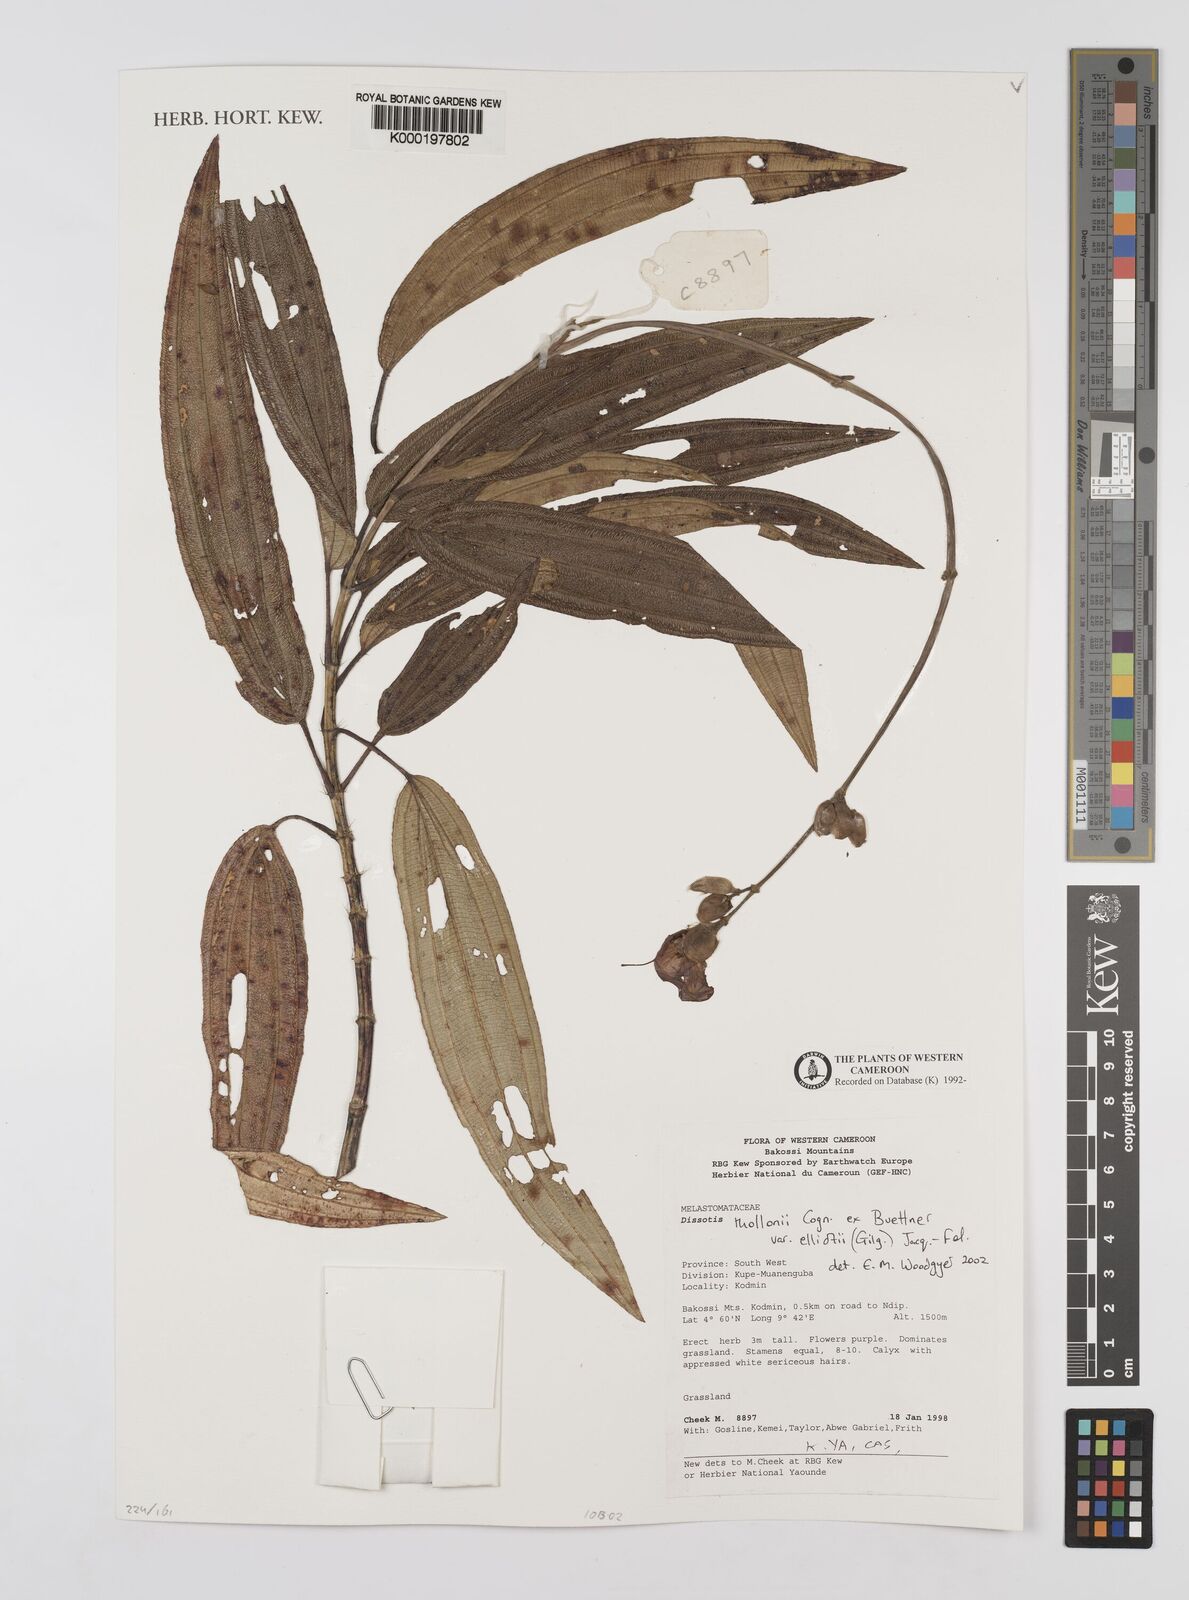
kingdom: Plantae
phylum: Tracheophyta
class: Magnoliopsida
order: Myrtales
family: Melastomataceae
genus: Dissotis
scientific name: Dissotis
